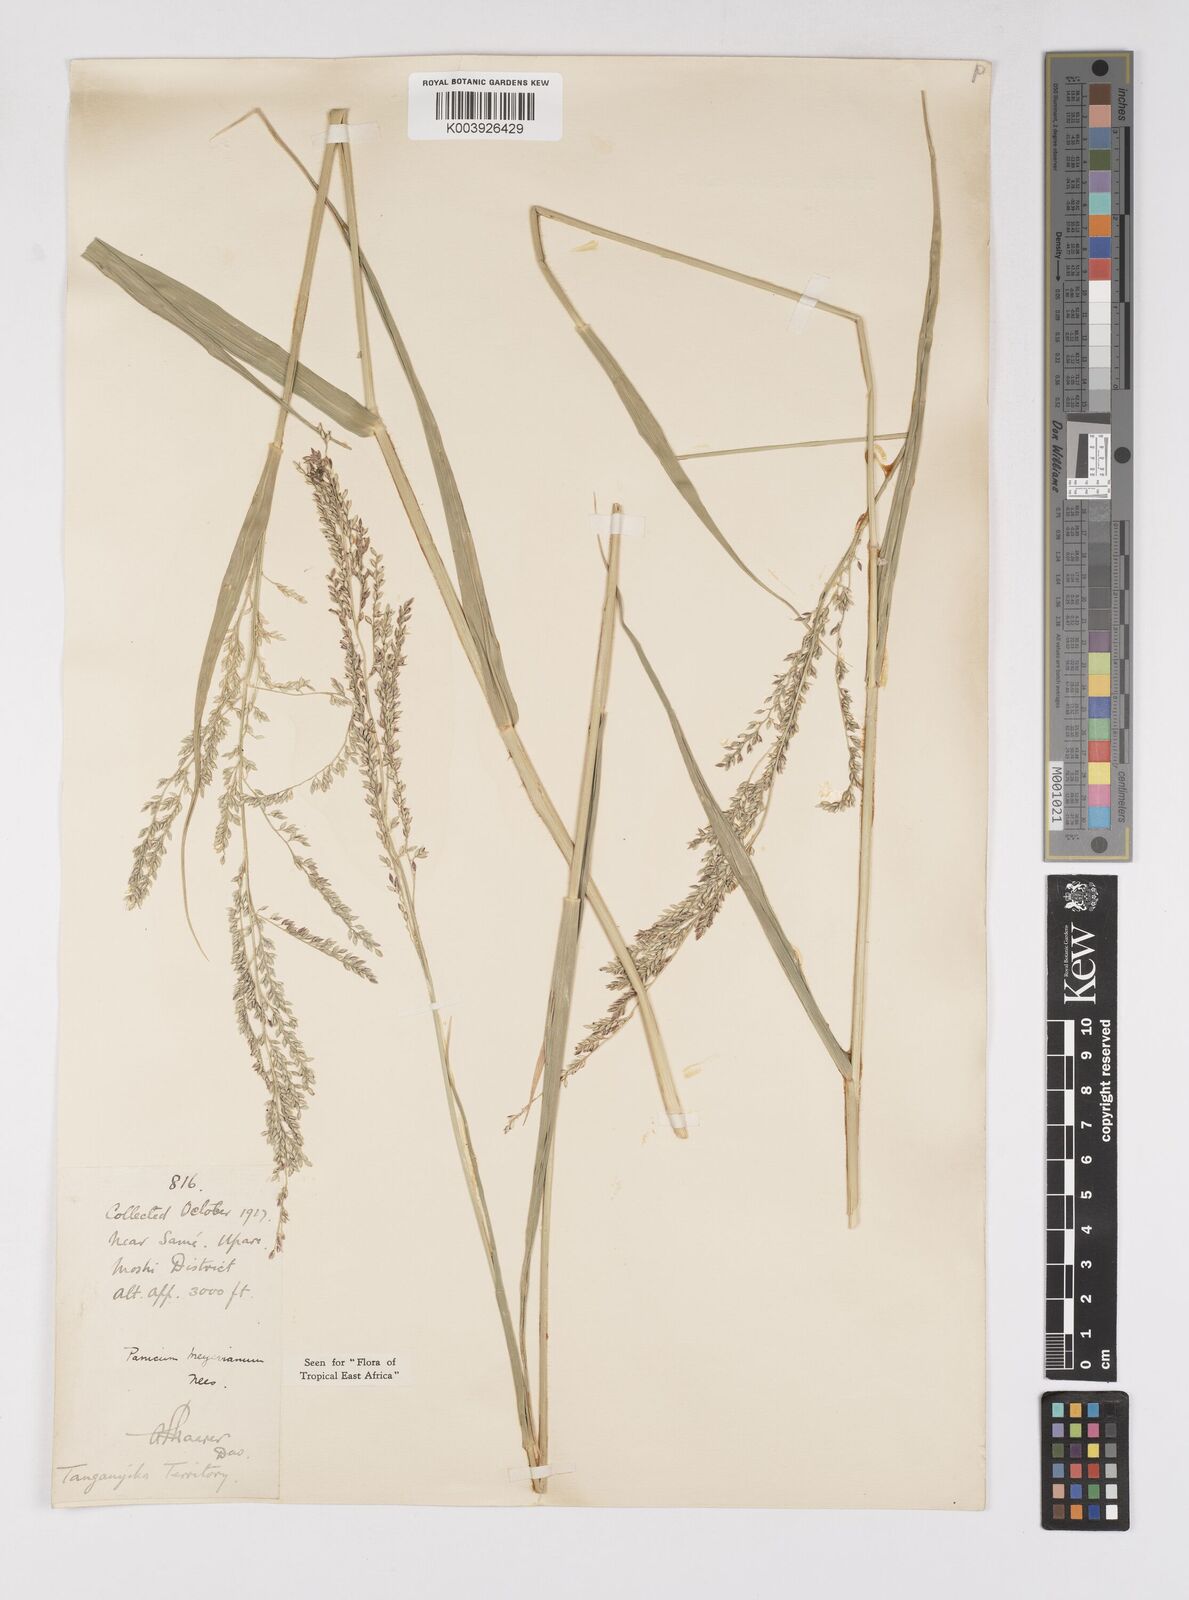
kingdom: Plantae
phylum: Tracheophyta
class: Liliopsida
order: Poales
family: Poaceae
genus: Eriochloa
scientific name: Eriochloa meyeriana
